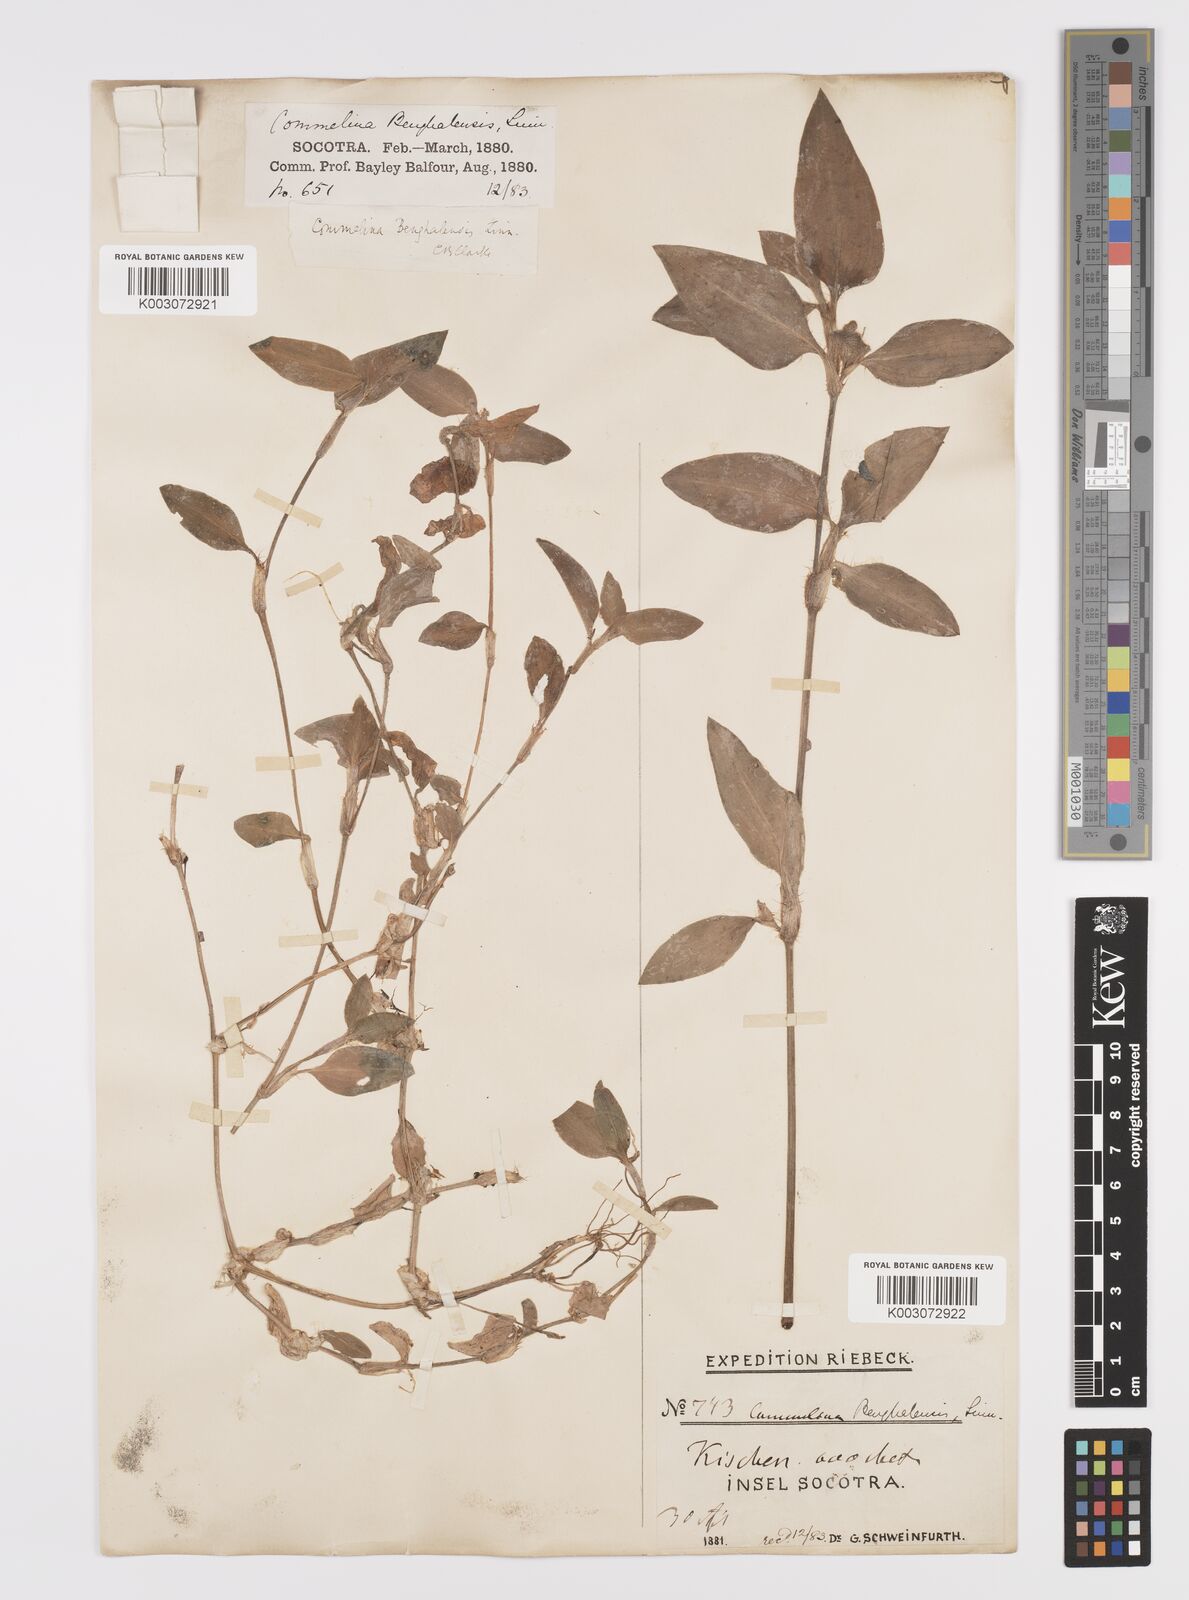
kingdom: Plantae
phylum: Tracheophyta
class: Liliopsida
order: Commelinales
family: Commelinaceae
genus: Commelina
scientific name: Commelina benghalensis
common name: Jio
